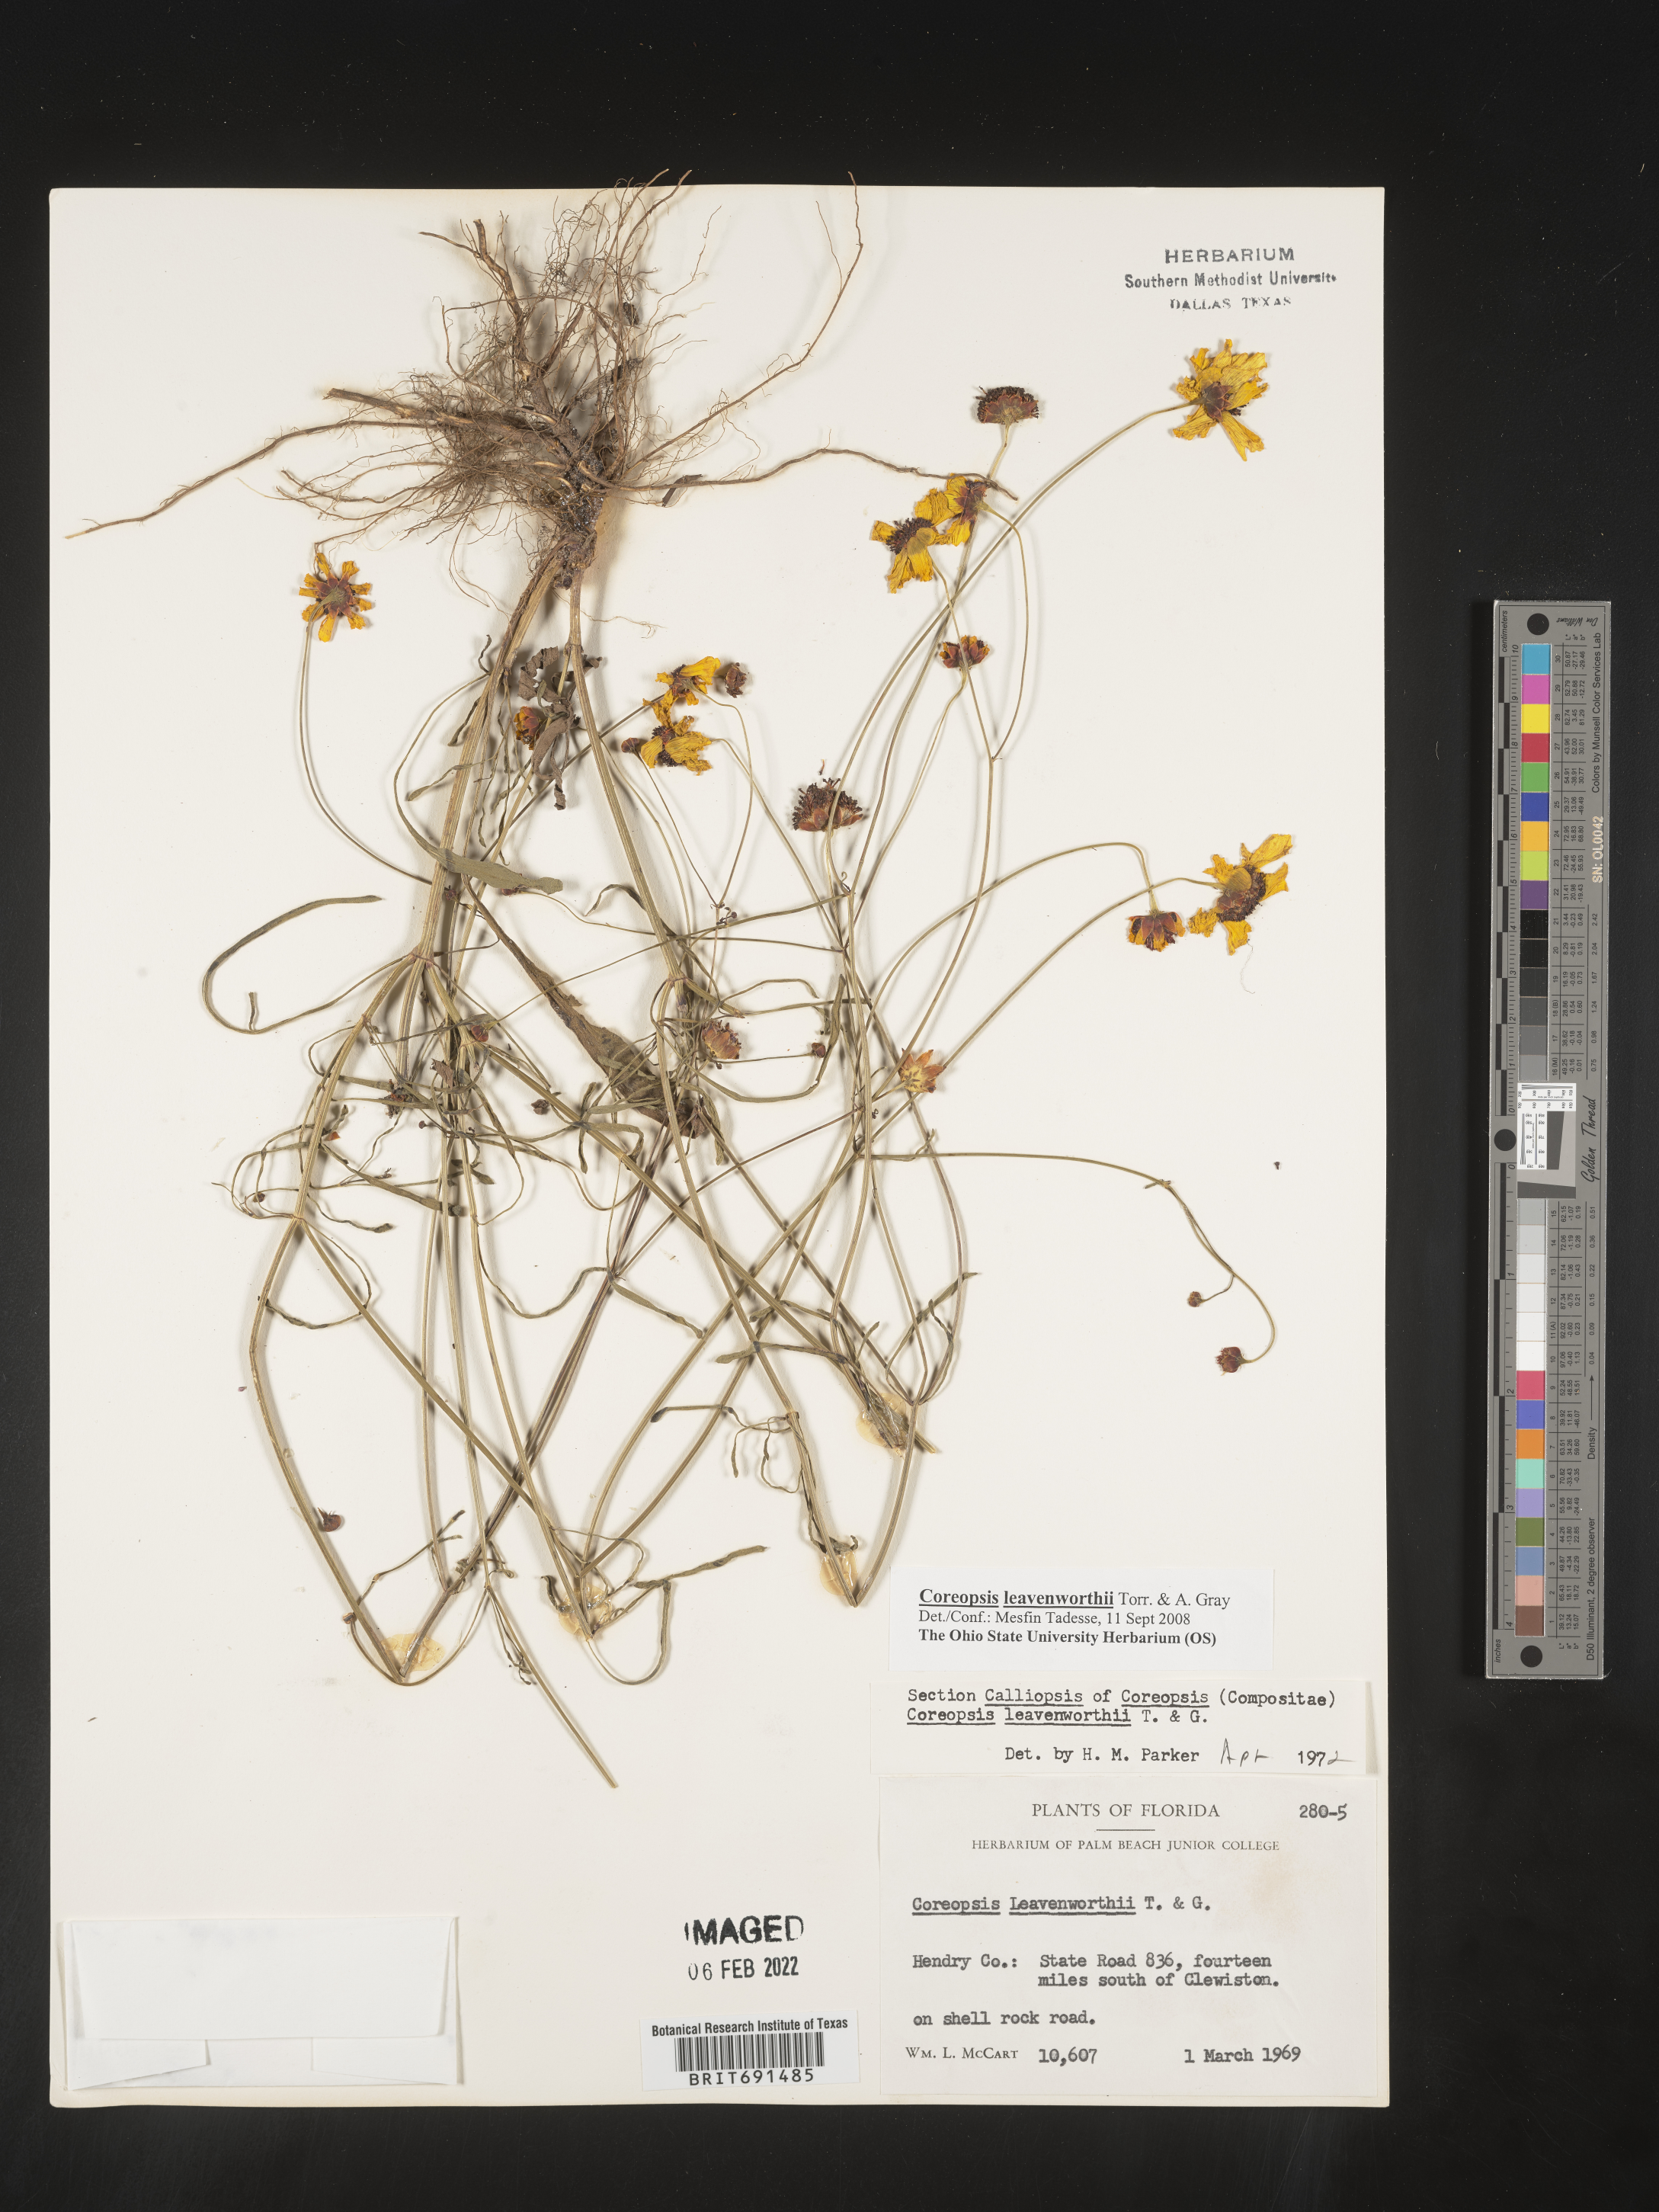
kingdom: Plantae
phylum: Tracheophyta
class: Magnoliopsida
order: Asterales
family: Asteraceae
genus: Coreopsis
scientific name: Coreopsis leavenworthii
